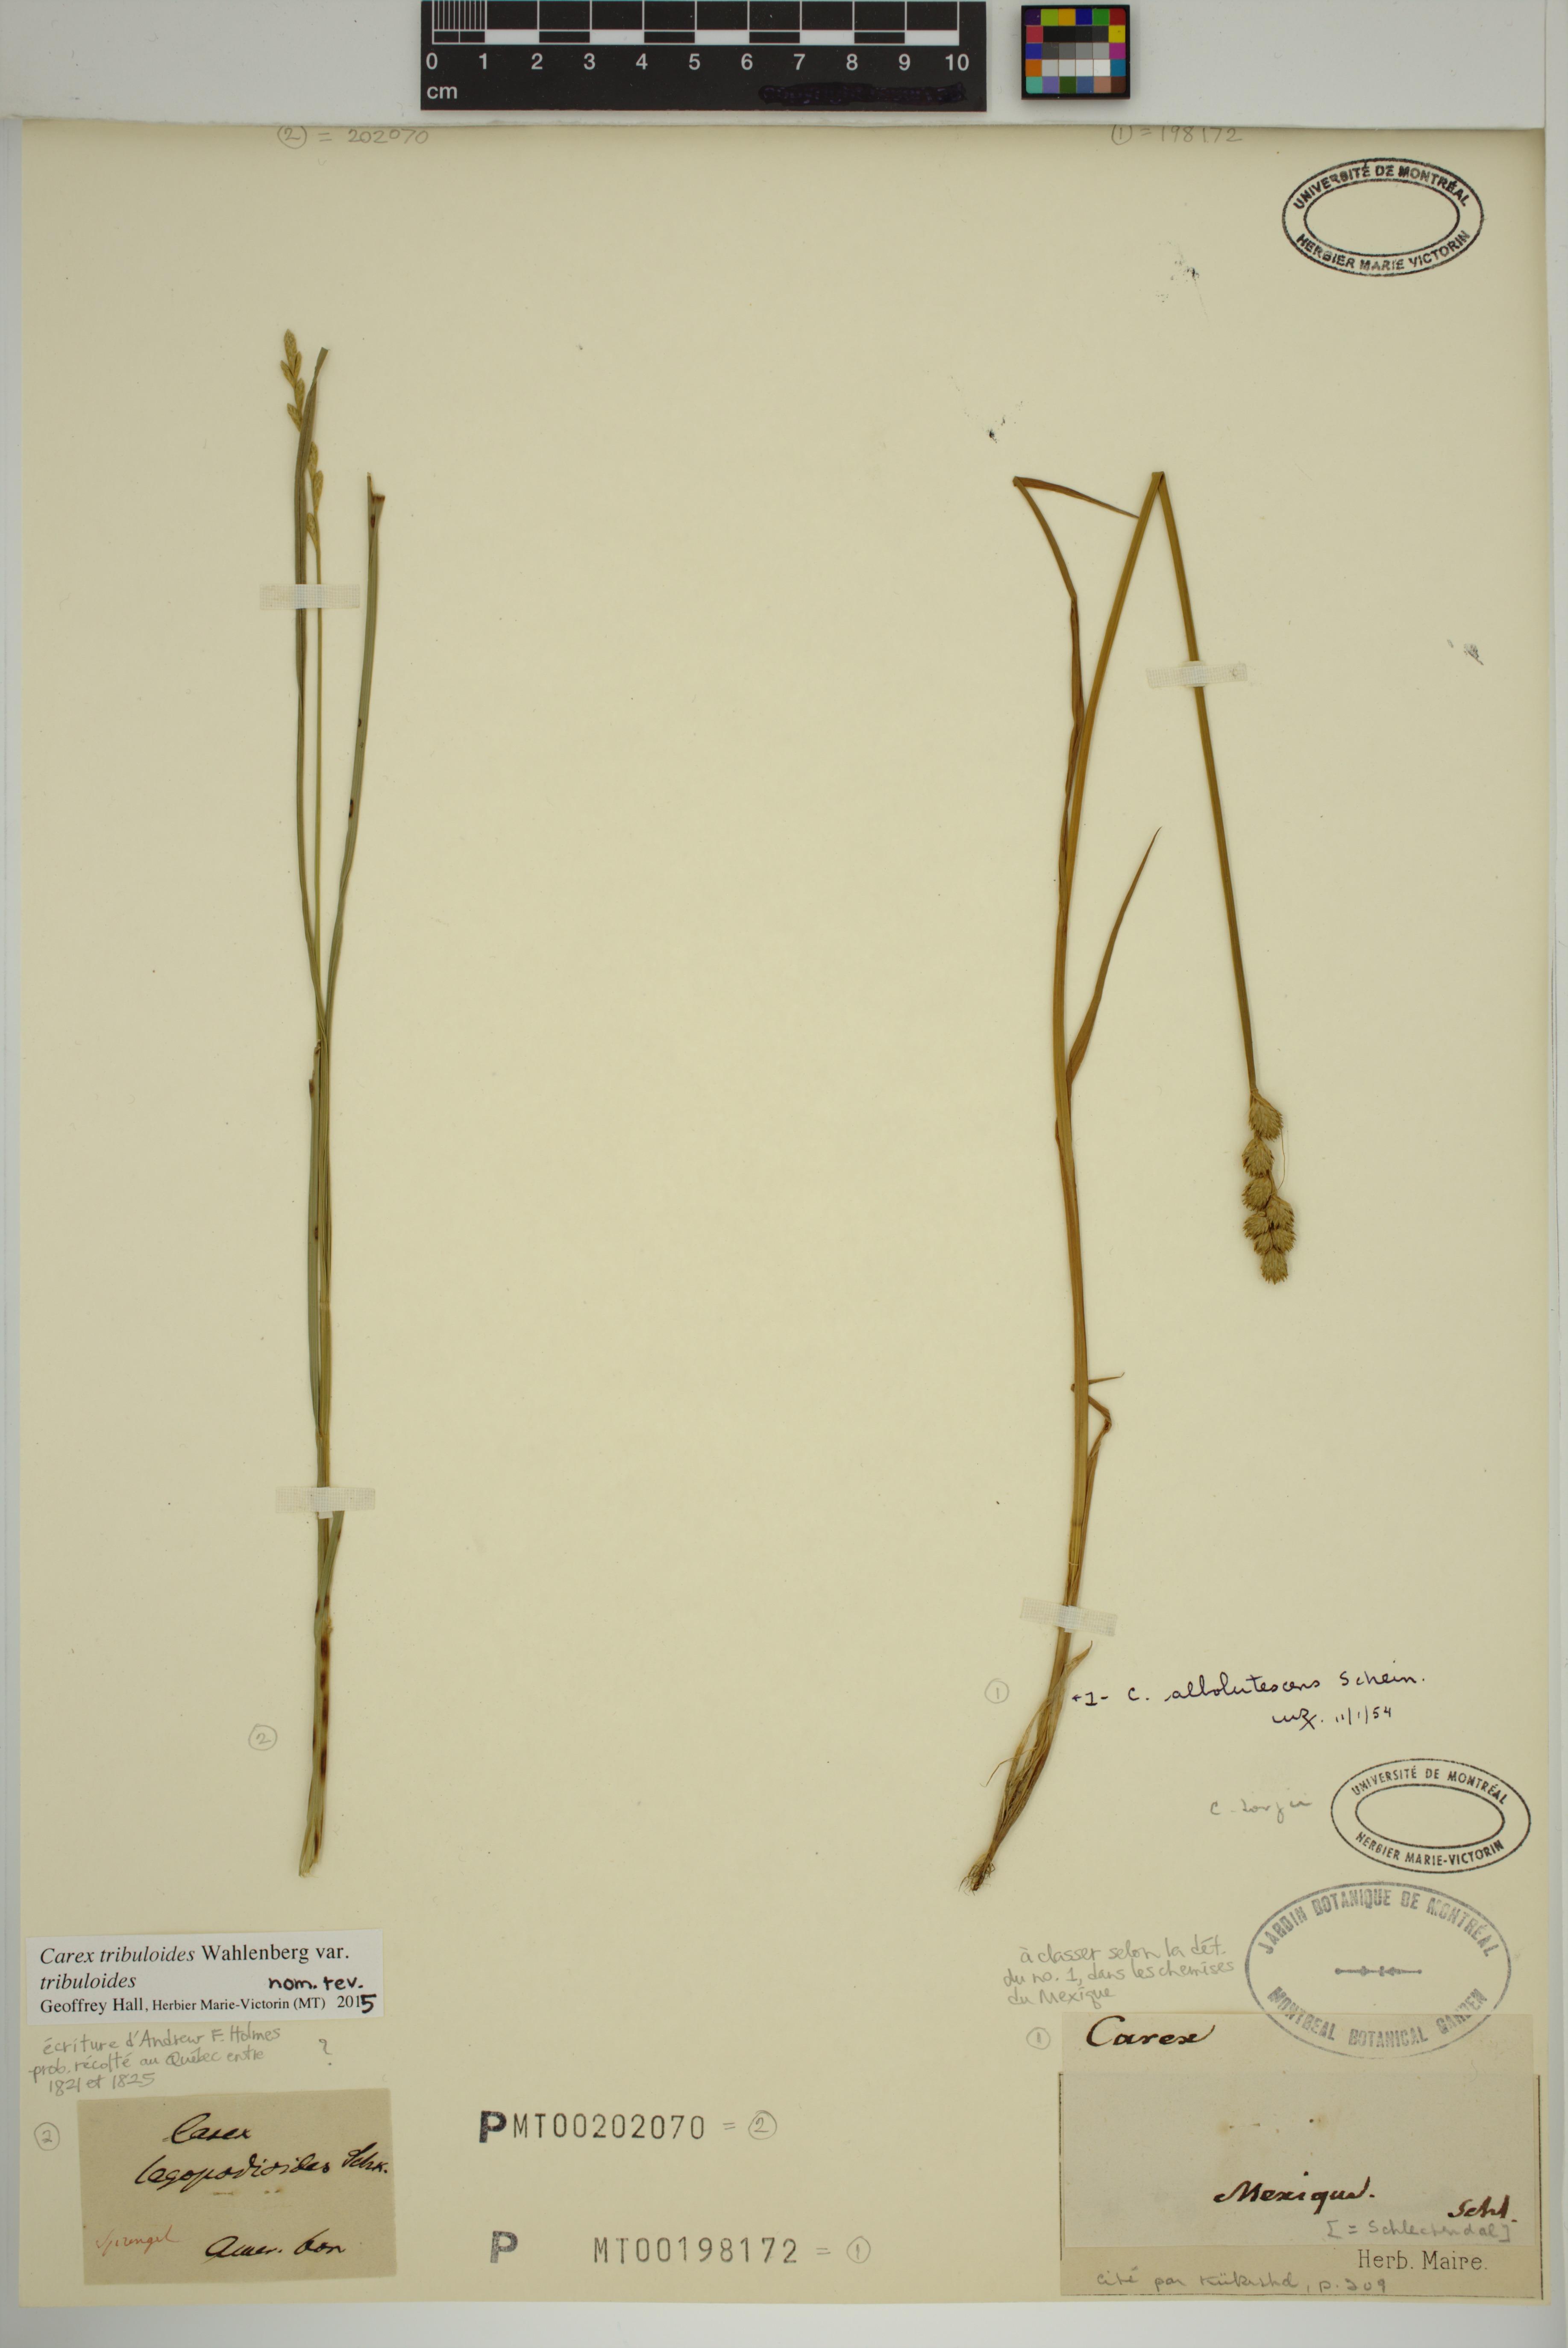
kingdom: Plantae
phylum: Tracheophyta
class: Liliopsida
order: Poales
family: Cyperaceae
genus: Carex
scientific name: Carex tribuloides
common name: Blunt broom sedge
